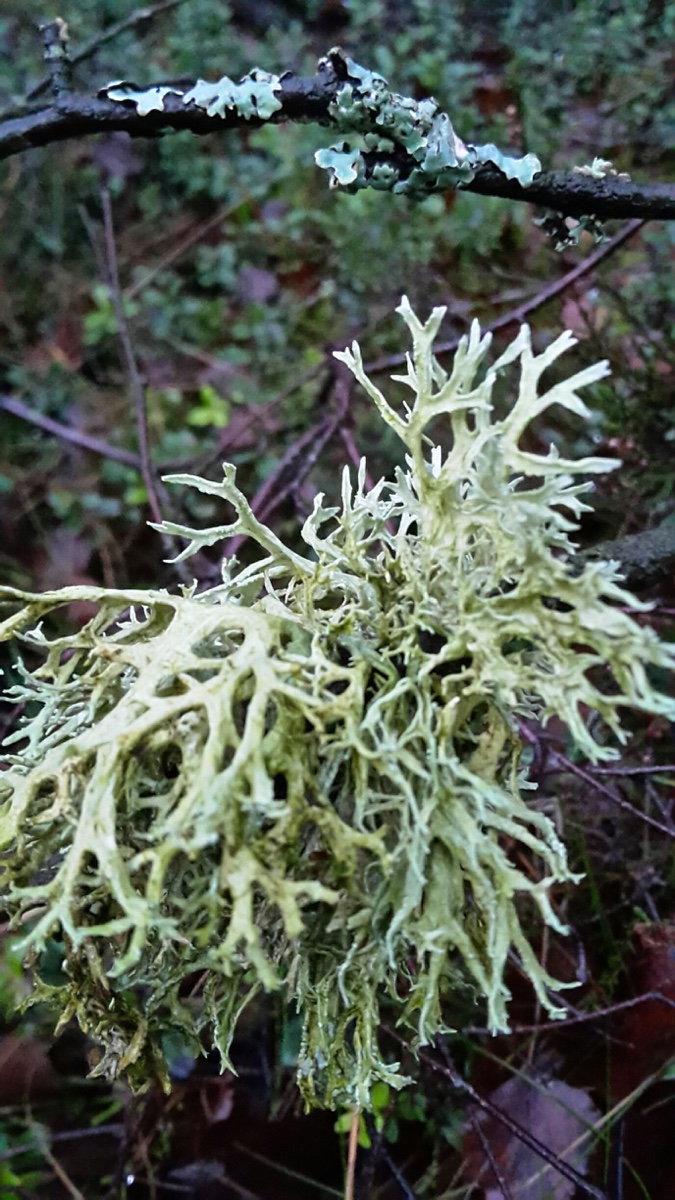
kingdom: Fungi
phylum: Ascomycota
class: Lecanoromycetes
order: Lecanorales
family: Parmeliaceae
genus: Evernia
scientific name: Evernia prunastri
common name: almindelig slåenlav
